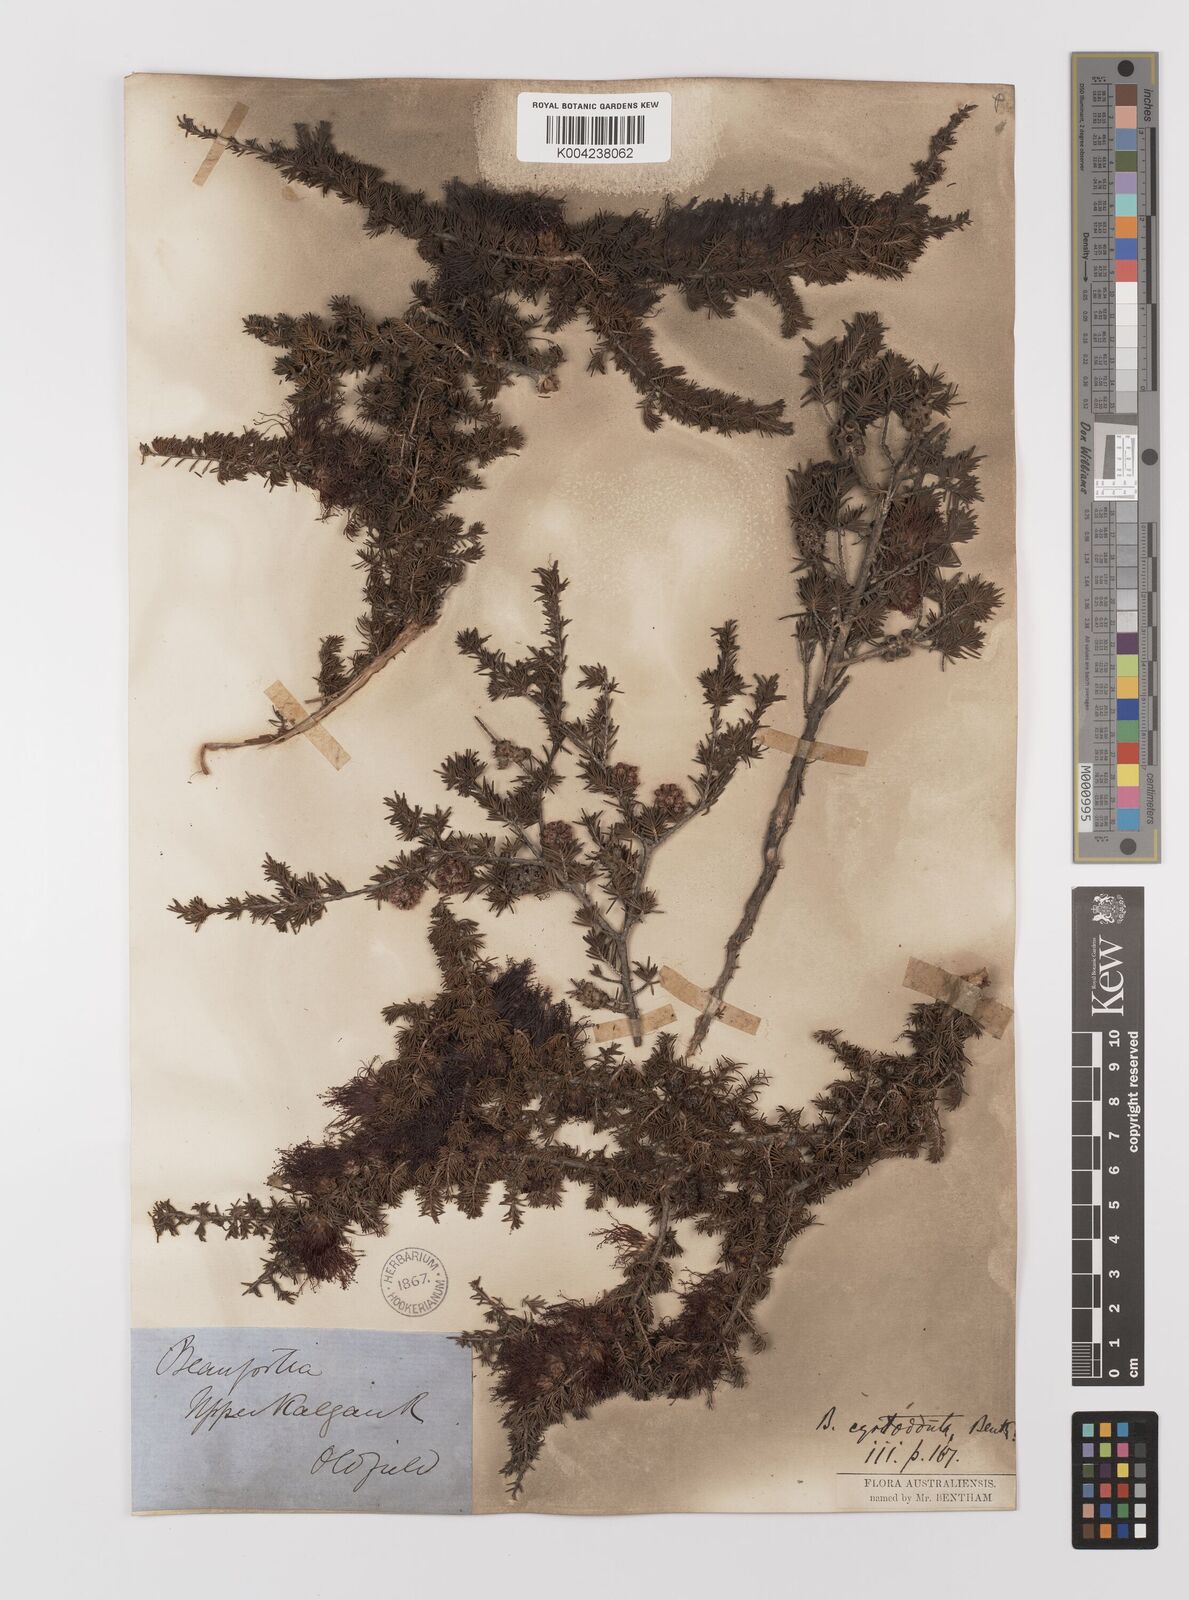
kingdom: Plantae
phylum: Tracheophyta
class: Magnoliopsida
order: Myrtales
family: Myrtaceae
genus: Melaleuca
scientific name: Melaleuca cyrtodonta
